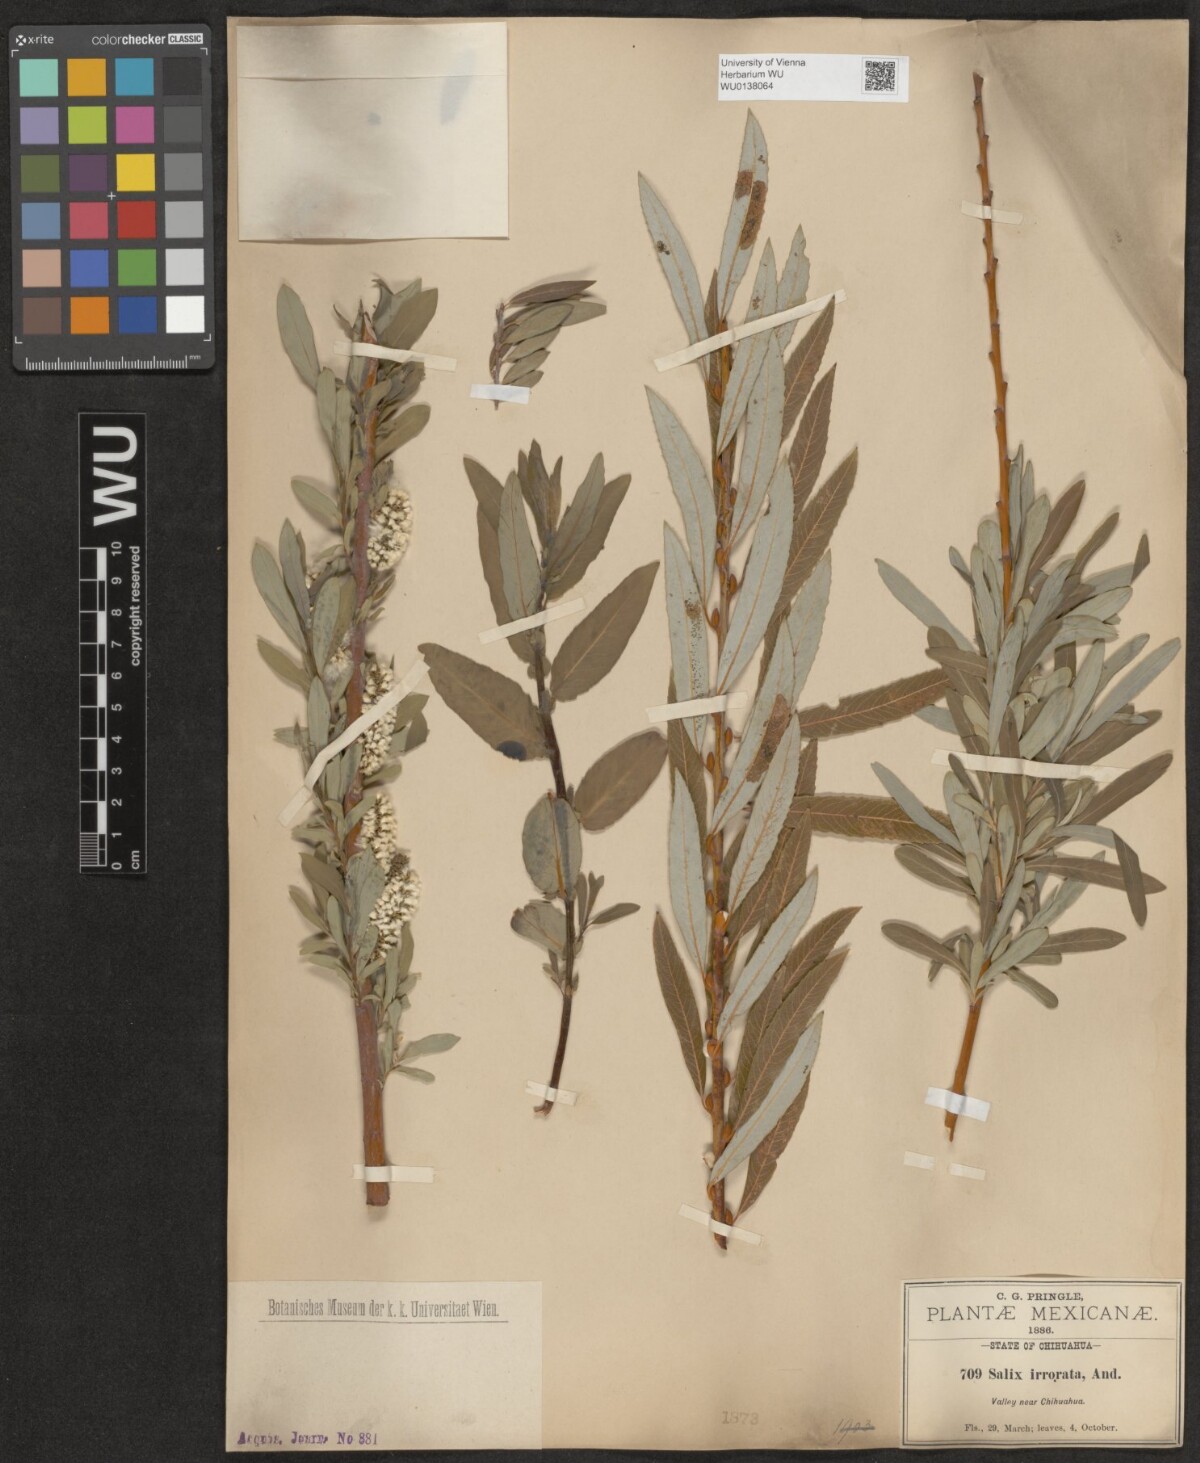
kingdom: Plantae
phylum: Tracheophyta
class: Magnoliopsida
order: Malpighiales
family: Salicaceae
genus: Salix
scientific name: Salix irrorata
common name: Blue-stem willow
